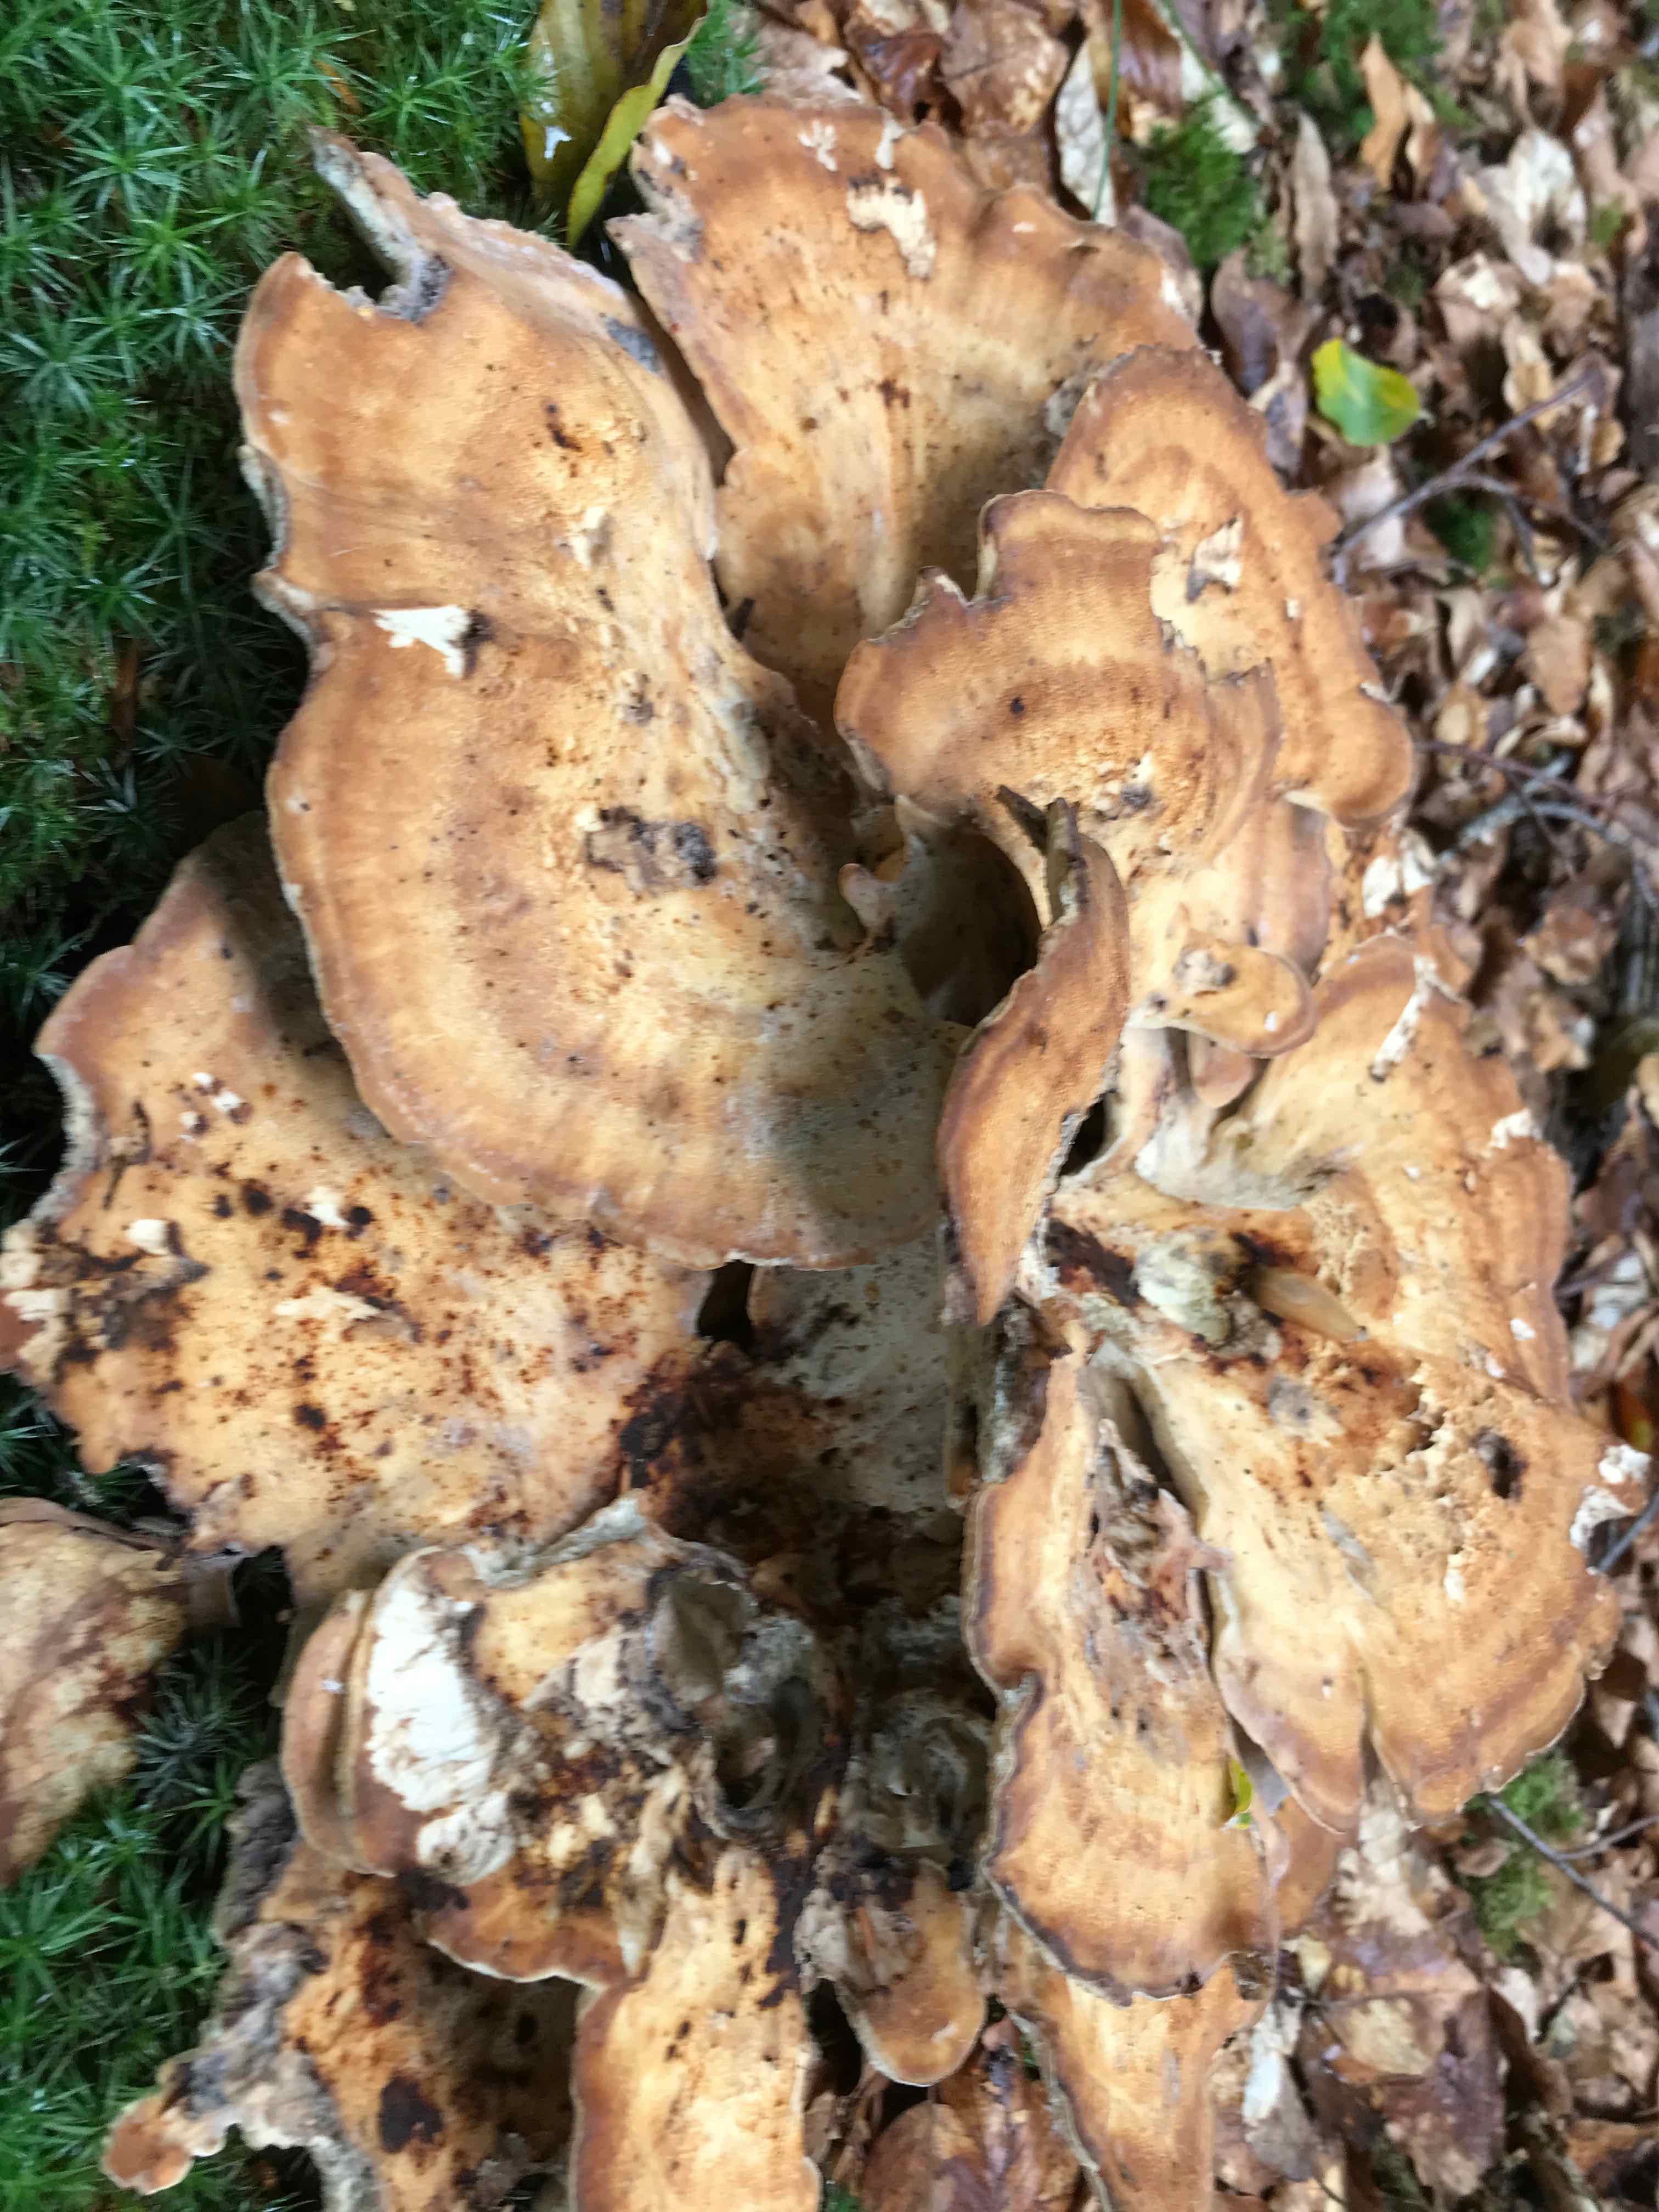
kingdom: Fungi
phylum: Basidiomycota
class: Agaricomycetes
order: Polyporales
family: Meripilaceae
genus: Meripilus
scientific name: Meripilus giganteus
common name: kæmpeporesvamp
